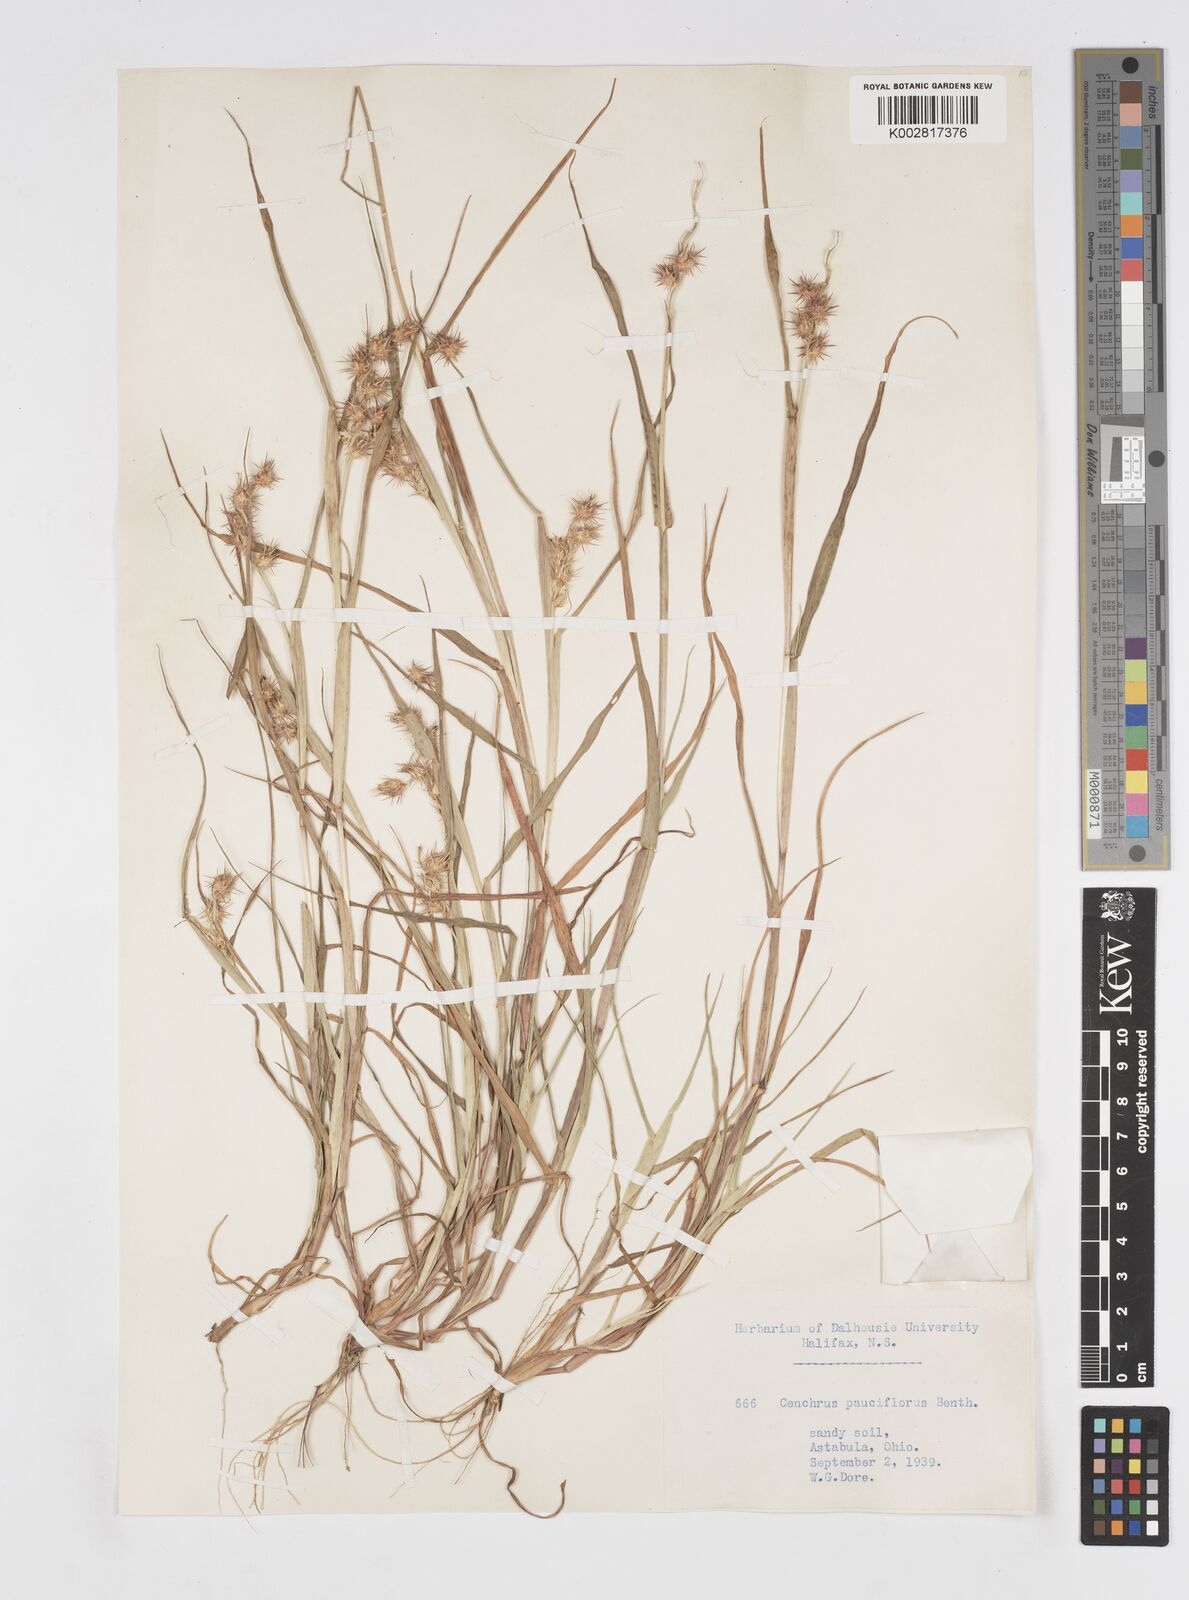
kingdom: Plantae
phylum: Tracheophyta
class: Liliopsida
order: Poales
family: Poaceae
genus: Cenchrus
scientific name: Cenchrus longispinus
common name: Mat sandbur
